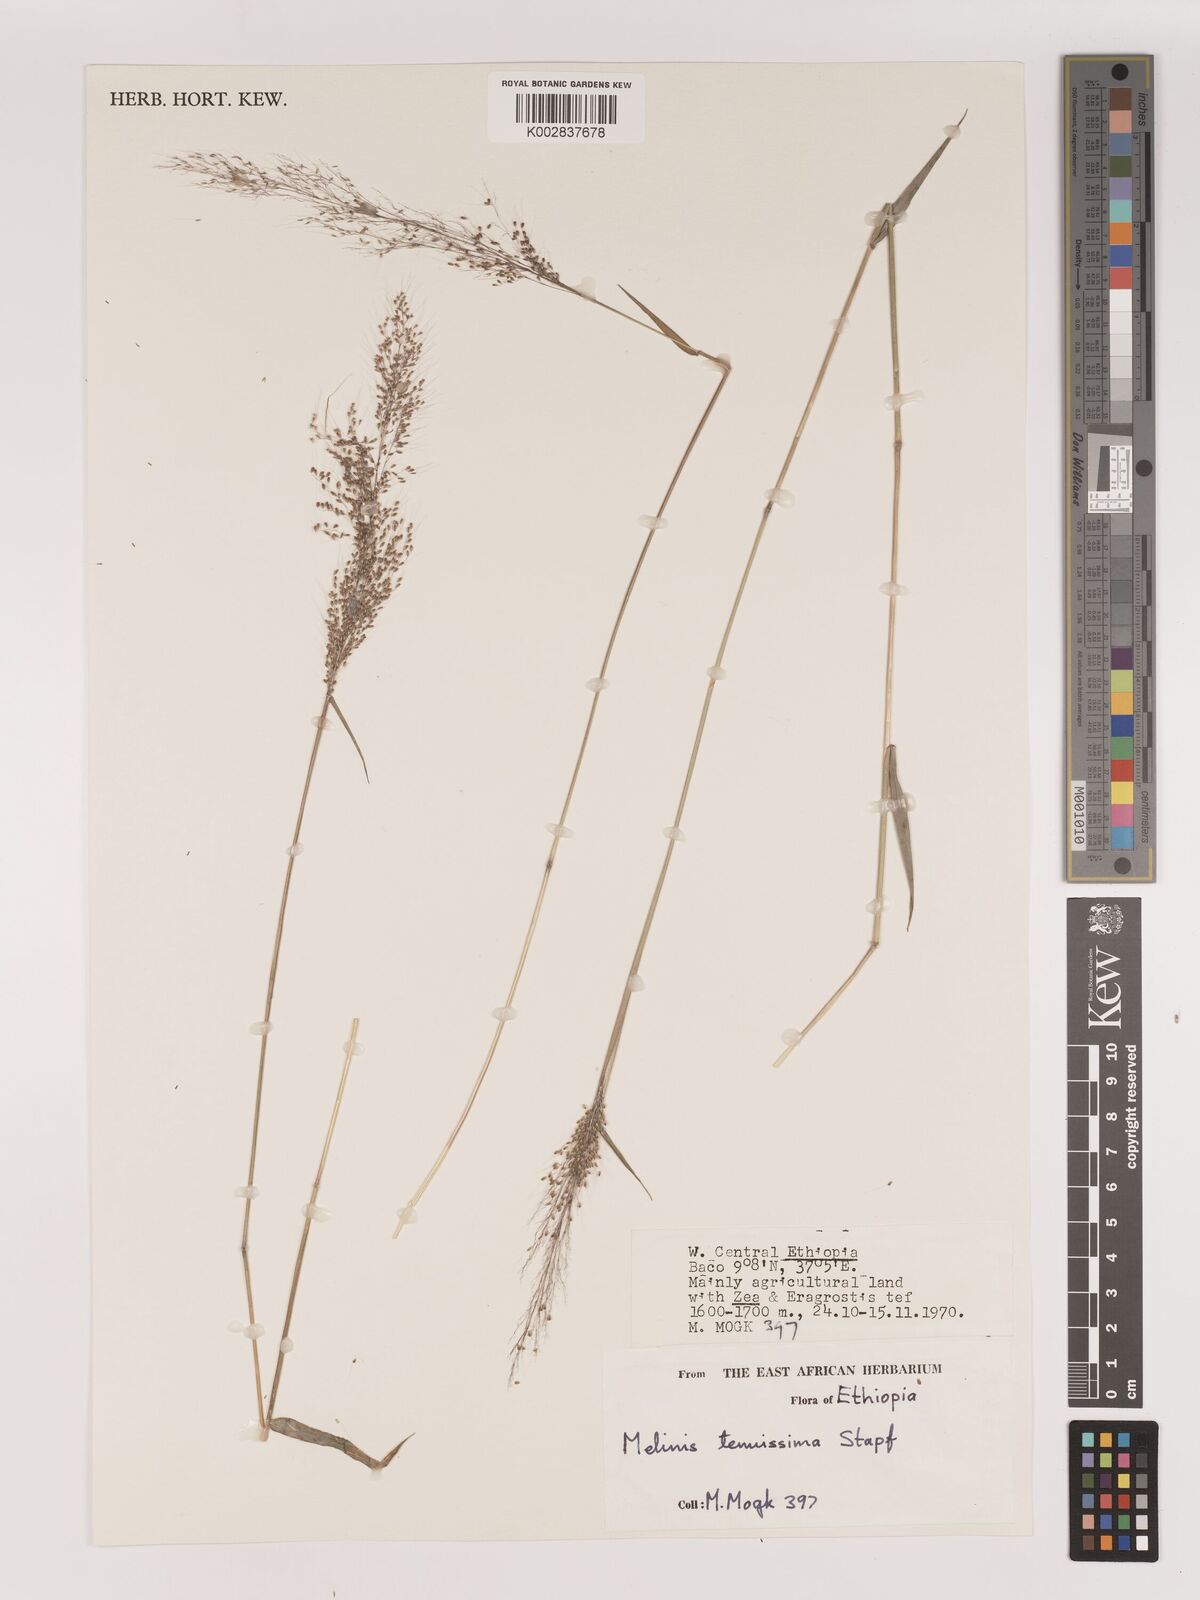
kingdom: Plantae
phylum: Tracheophyta
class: Liliopsida
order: Poales
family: Poaceae
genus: Melinis
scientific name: Melinis tenuissima
